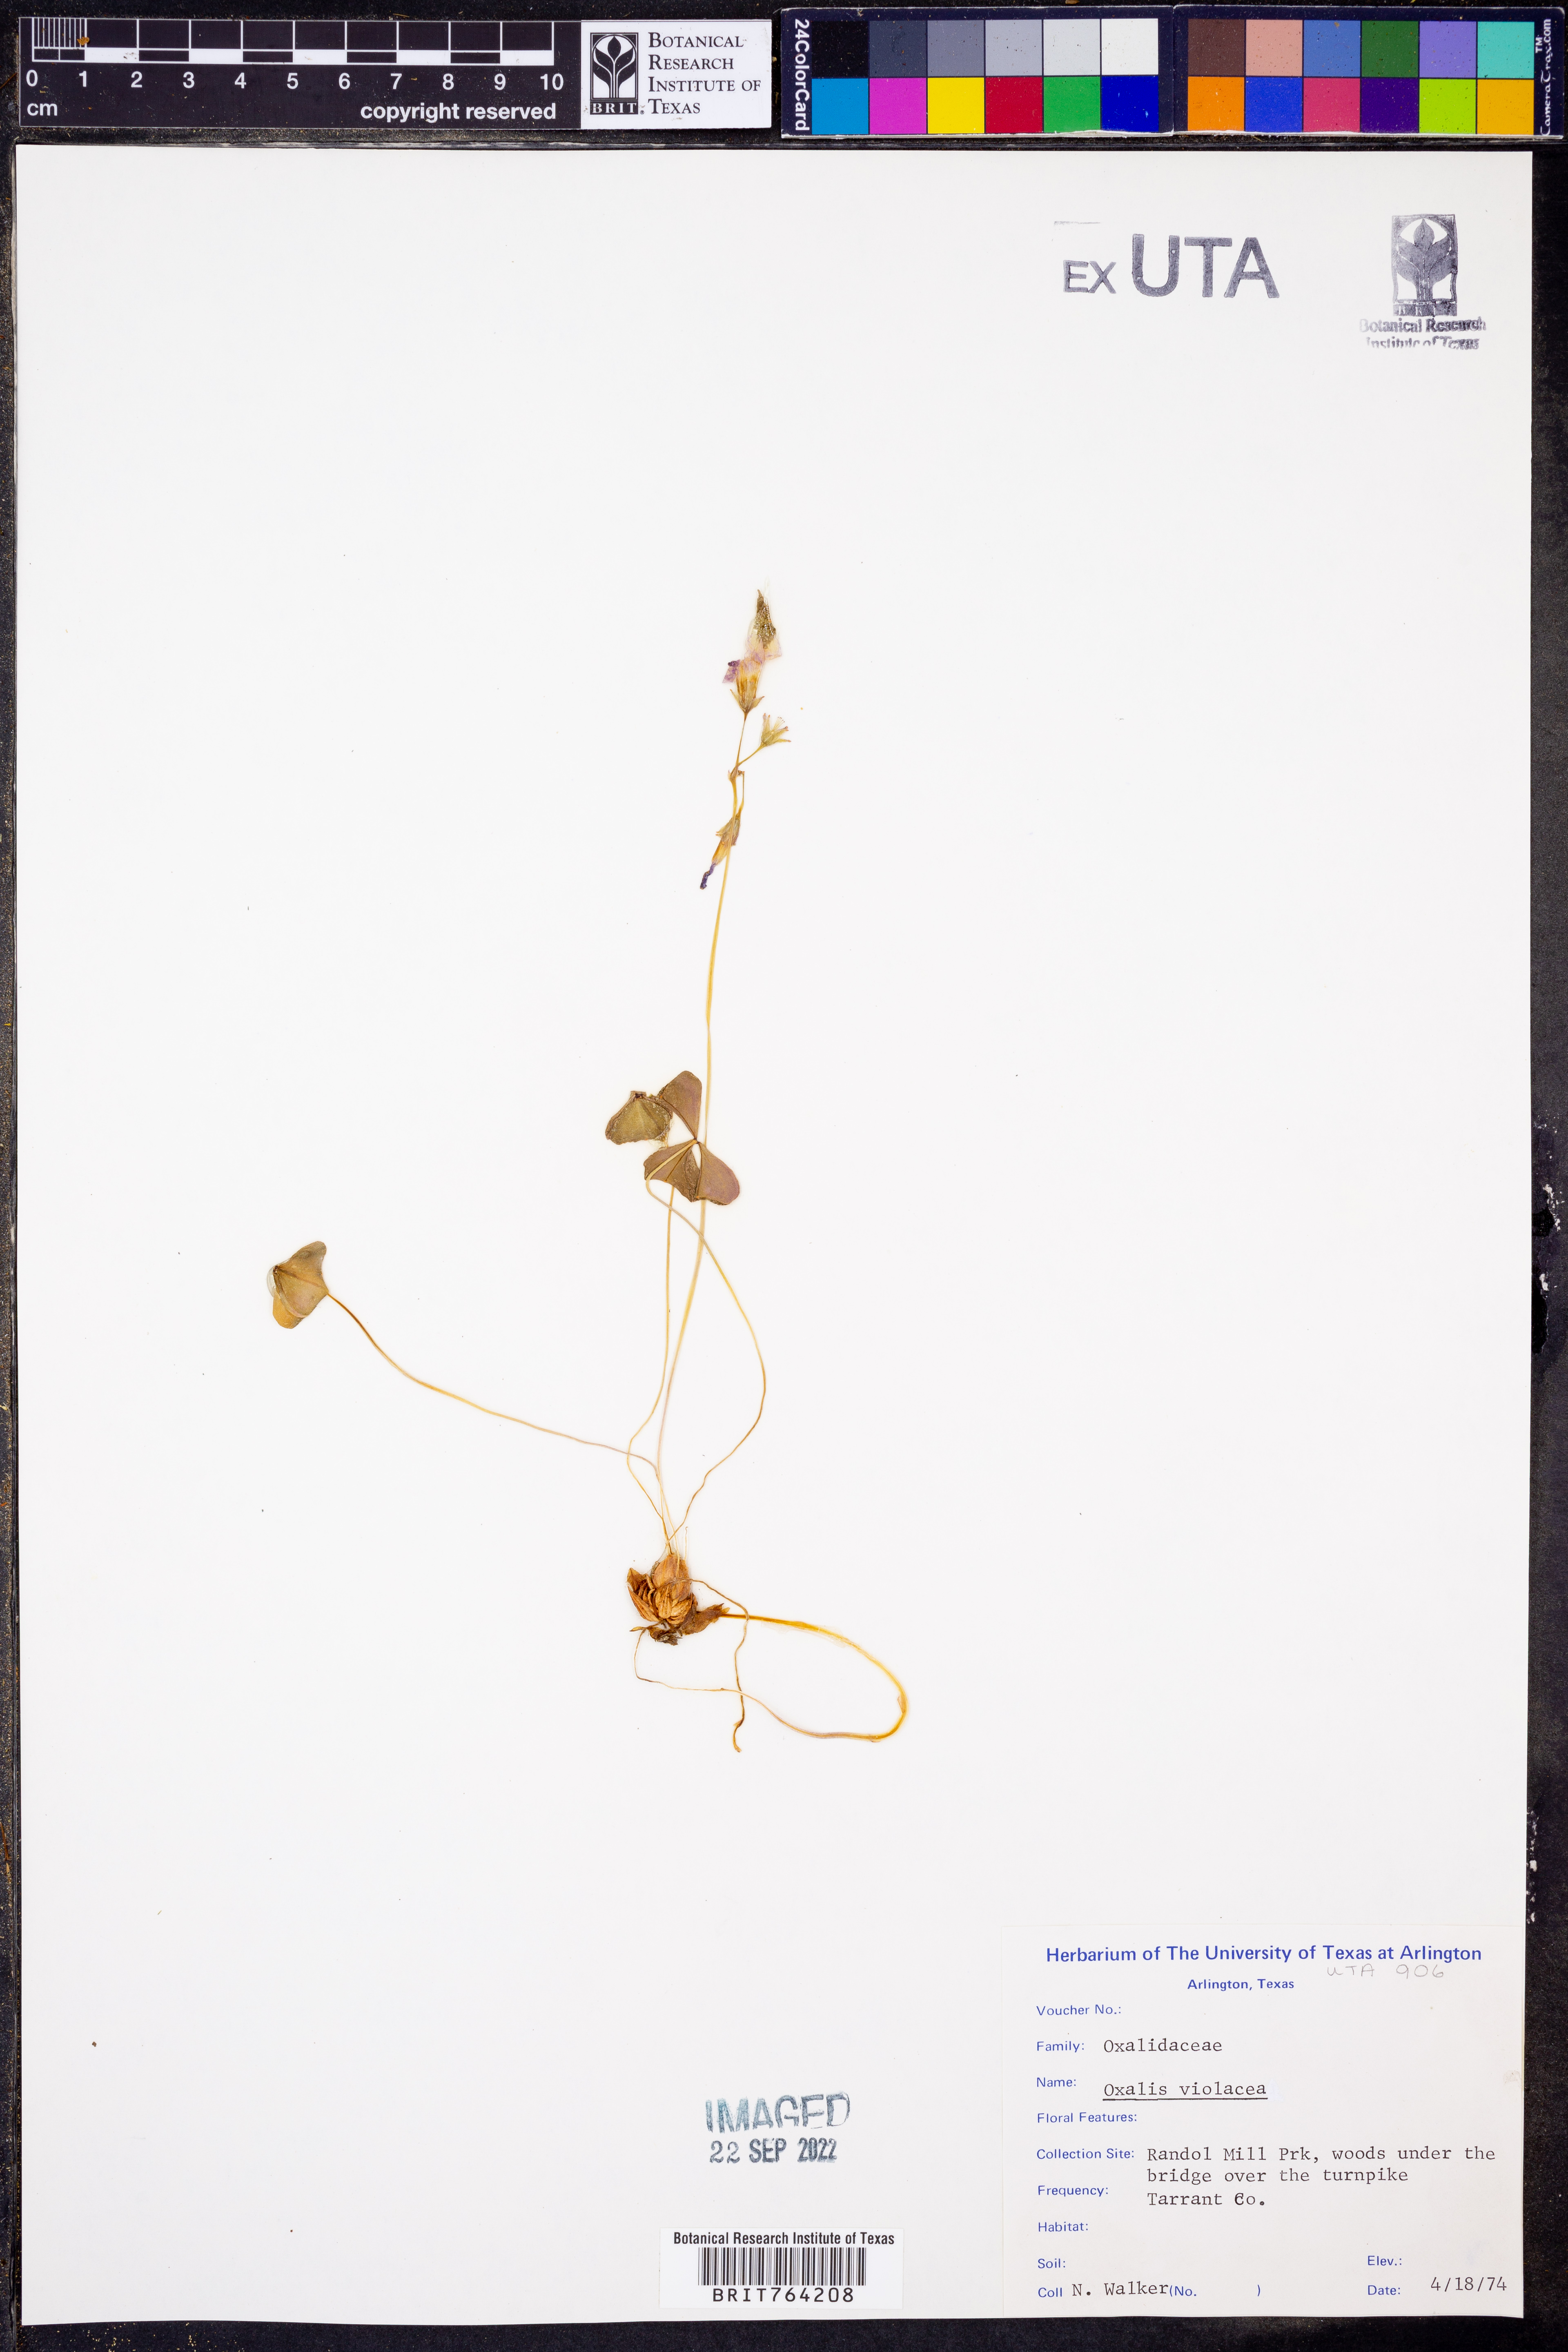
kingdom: Plantae
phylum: Tracheophyta
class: Magnoliopsida
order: Oxalidales
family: Oxalidaceae
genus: Oxalis
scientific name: Oxalis violacea
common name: Violet wood-sorrel
